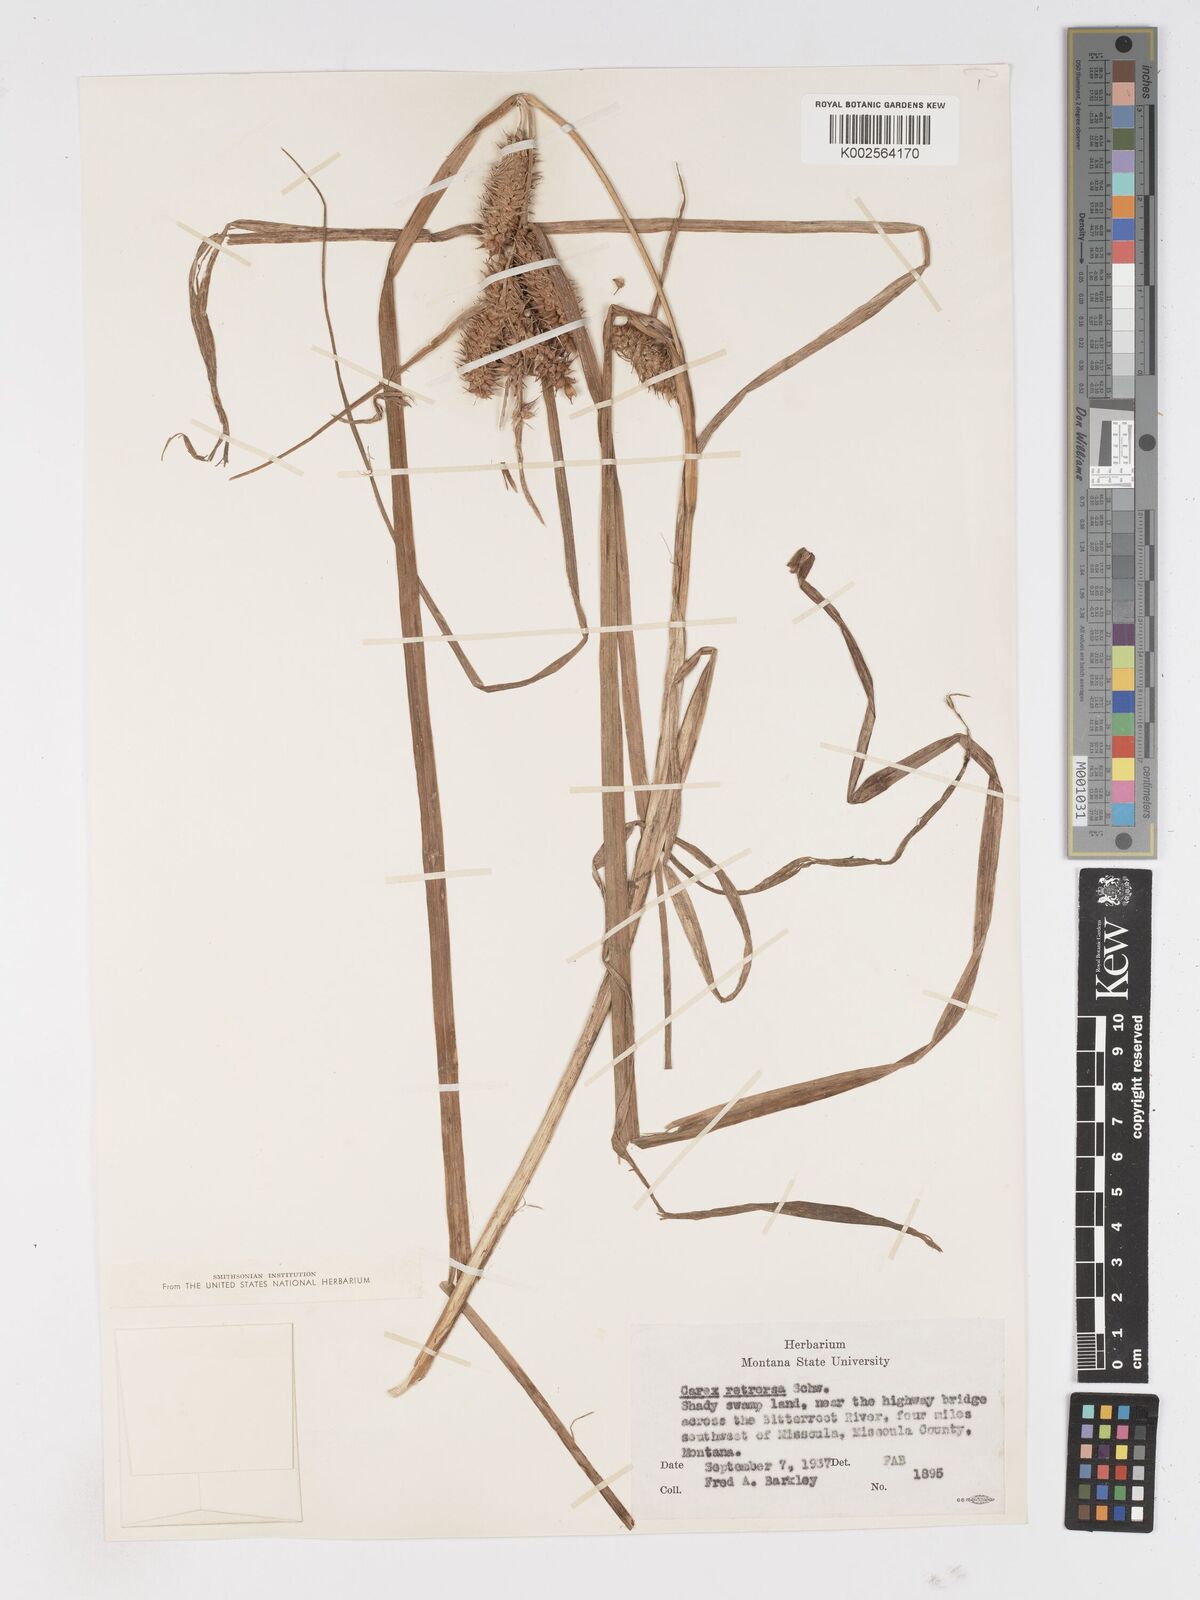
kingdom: Plantae
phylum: Tracheophyta
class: Liliopsida
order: Poales
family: Cyperaceae
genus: Carex
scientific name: Carex retrorsa
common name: Knot-sheath sedge
